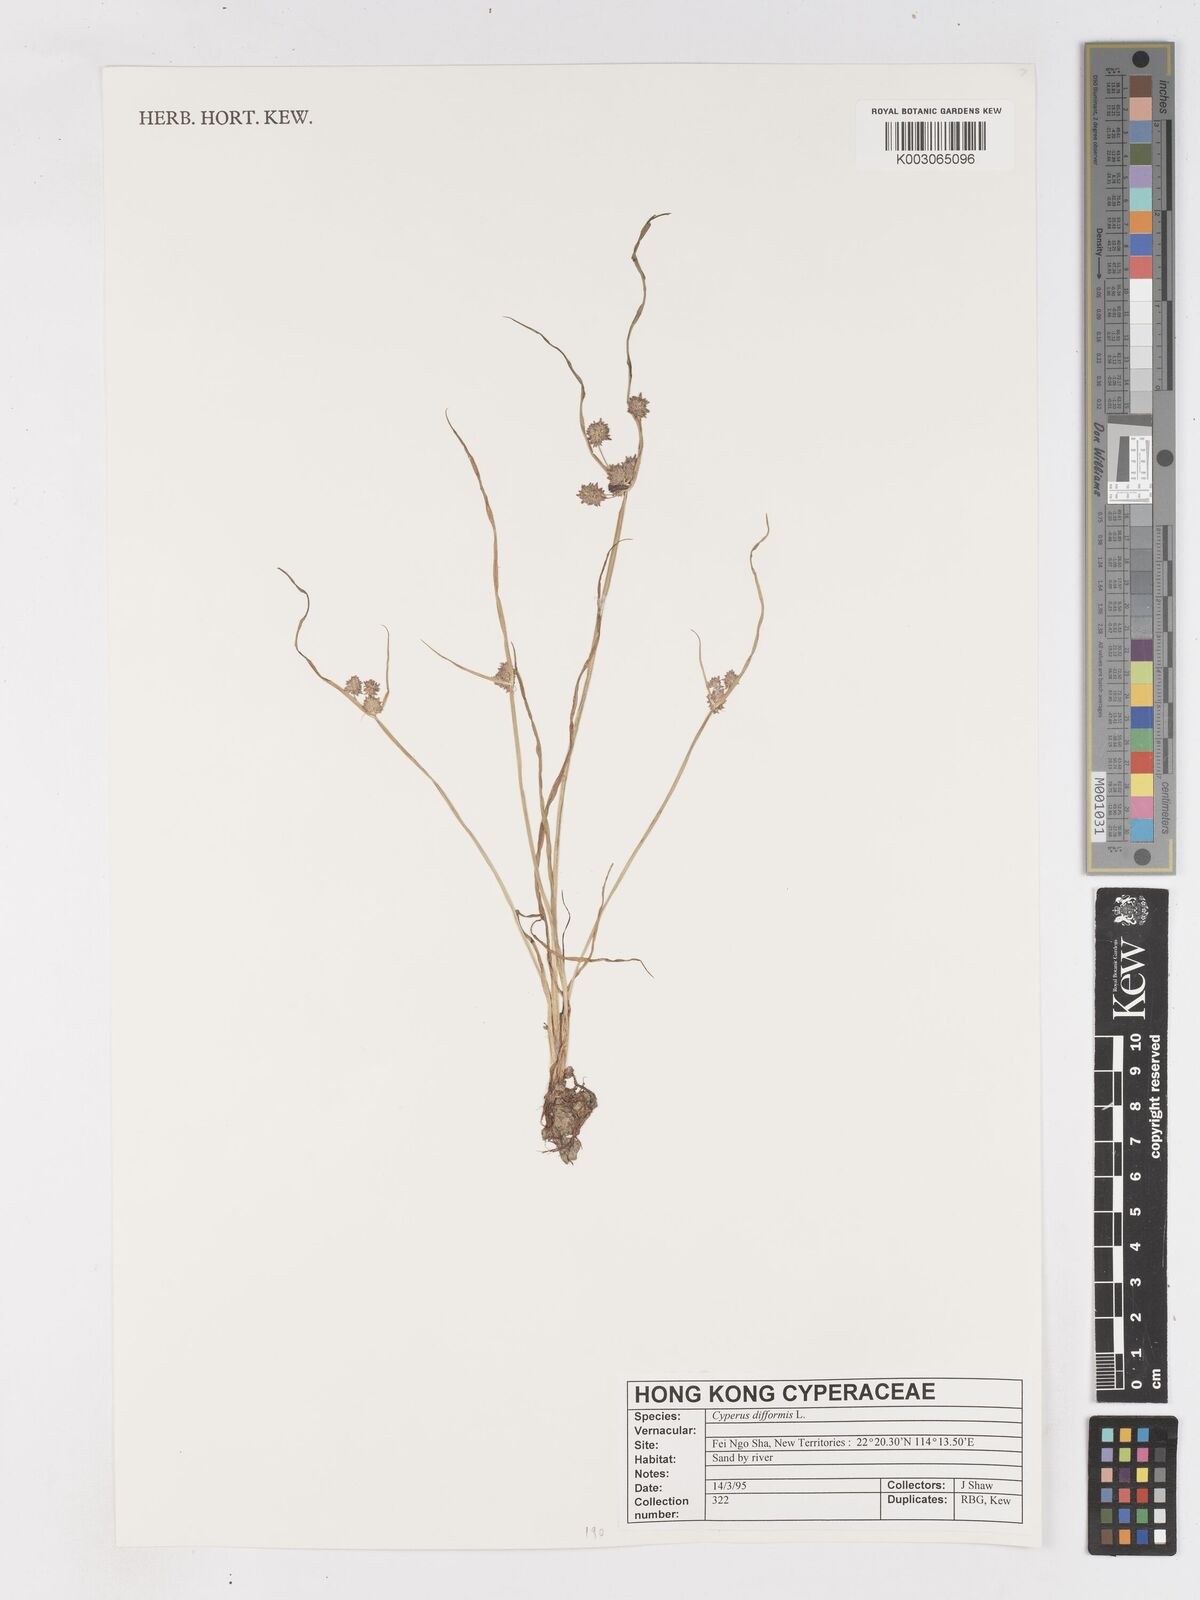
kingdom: Plantae
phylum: Tracheophyta
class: Liliopsida
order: Poales
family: Cyperaceae
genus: Cyperus
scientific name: Cyperus difformis
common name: Variable flatsedge
